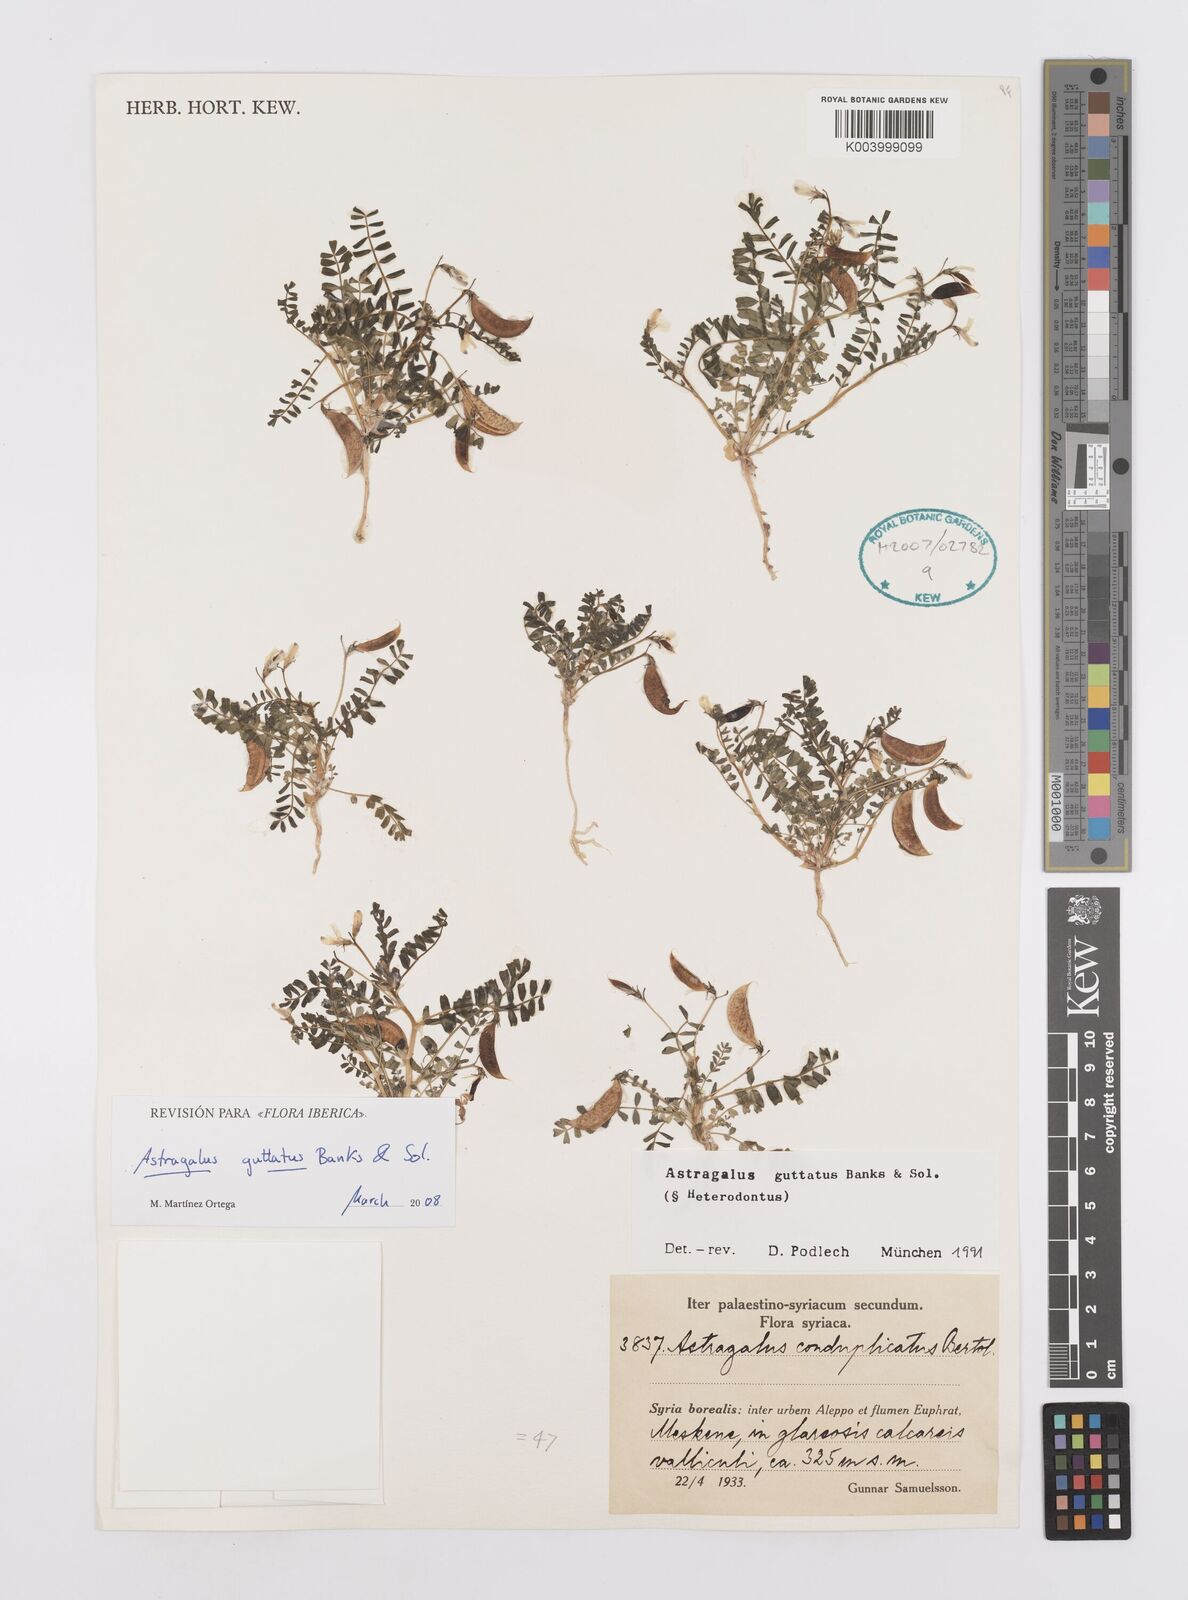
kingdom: Plantae
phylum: Tracheophyta
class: Magnoliopsida
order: Fabales
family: Fabaceae
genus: Astragalus
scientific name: Astragalus guttatus
